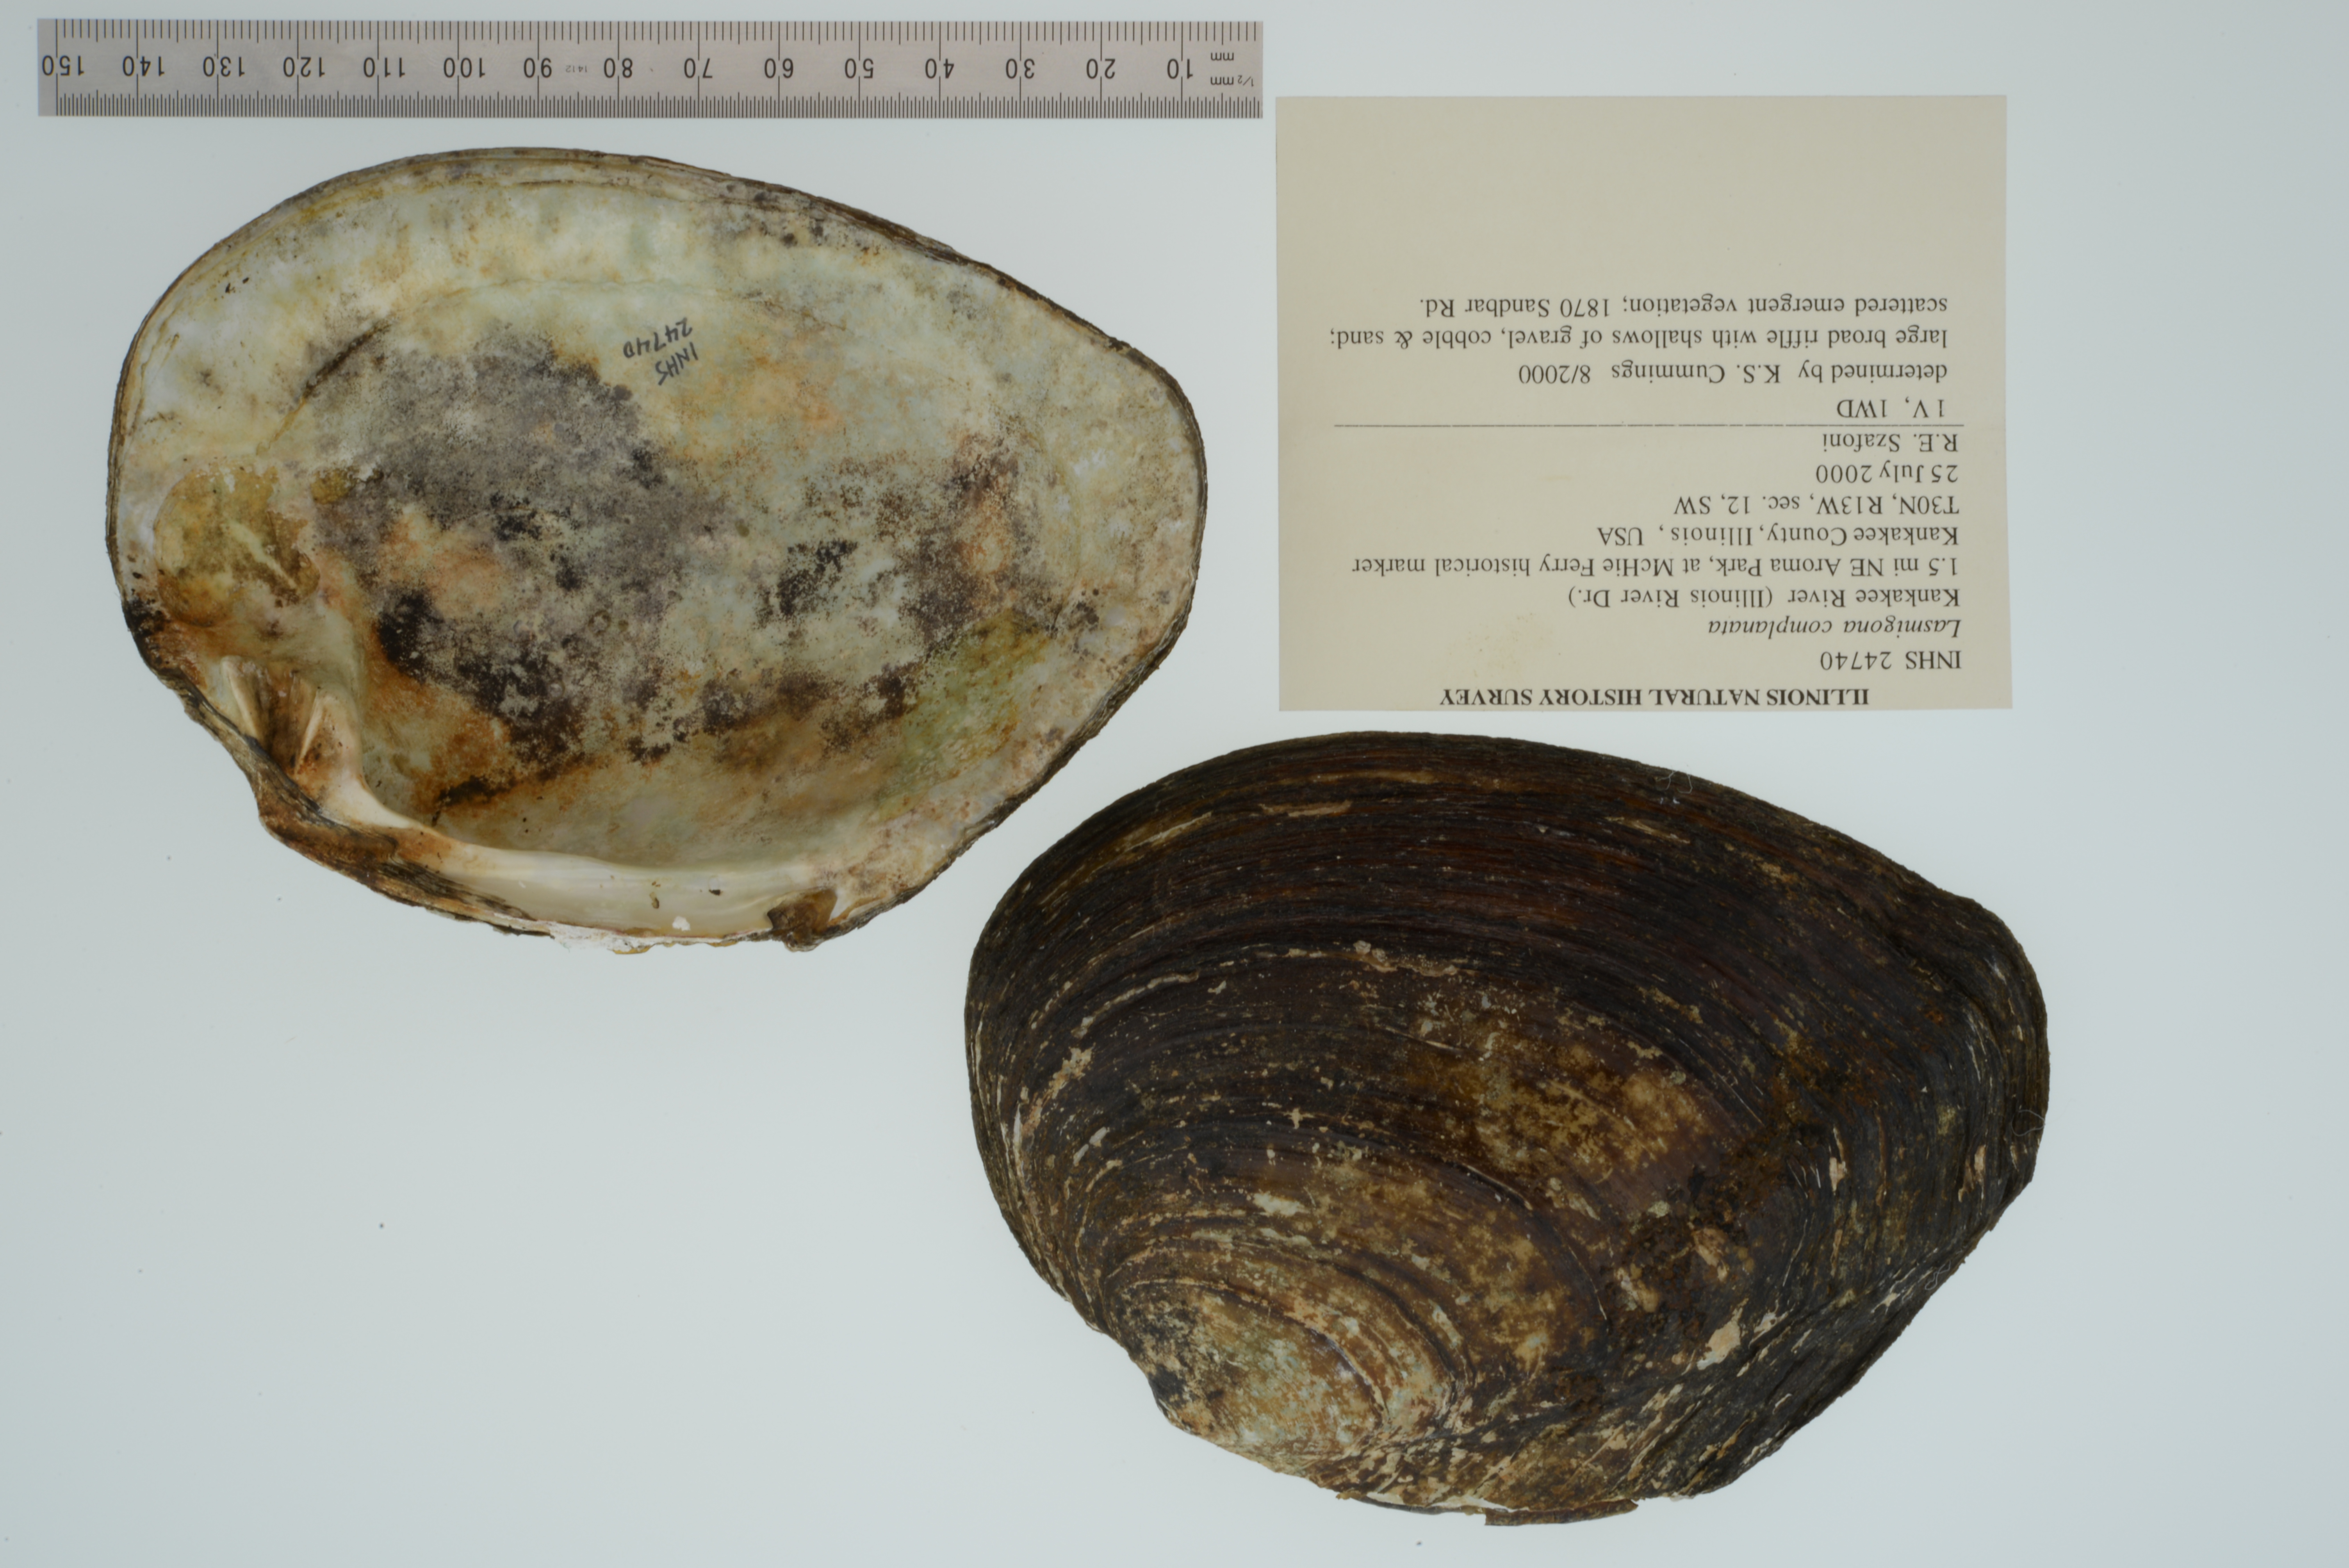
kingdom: Animalia
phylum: Mollusca
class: Bivalvia
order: Unionida
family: Unionidae
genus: Lasmigona
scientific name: Lasmigona complanata
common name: White heelsplitter
